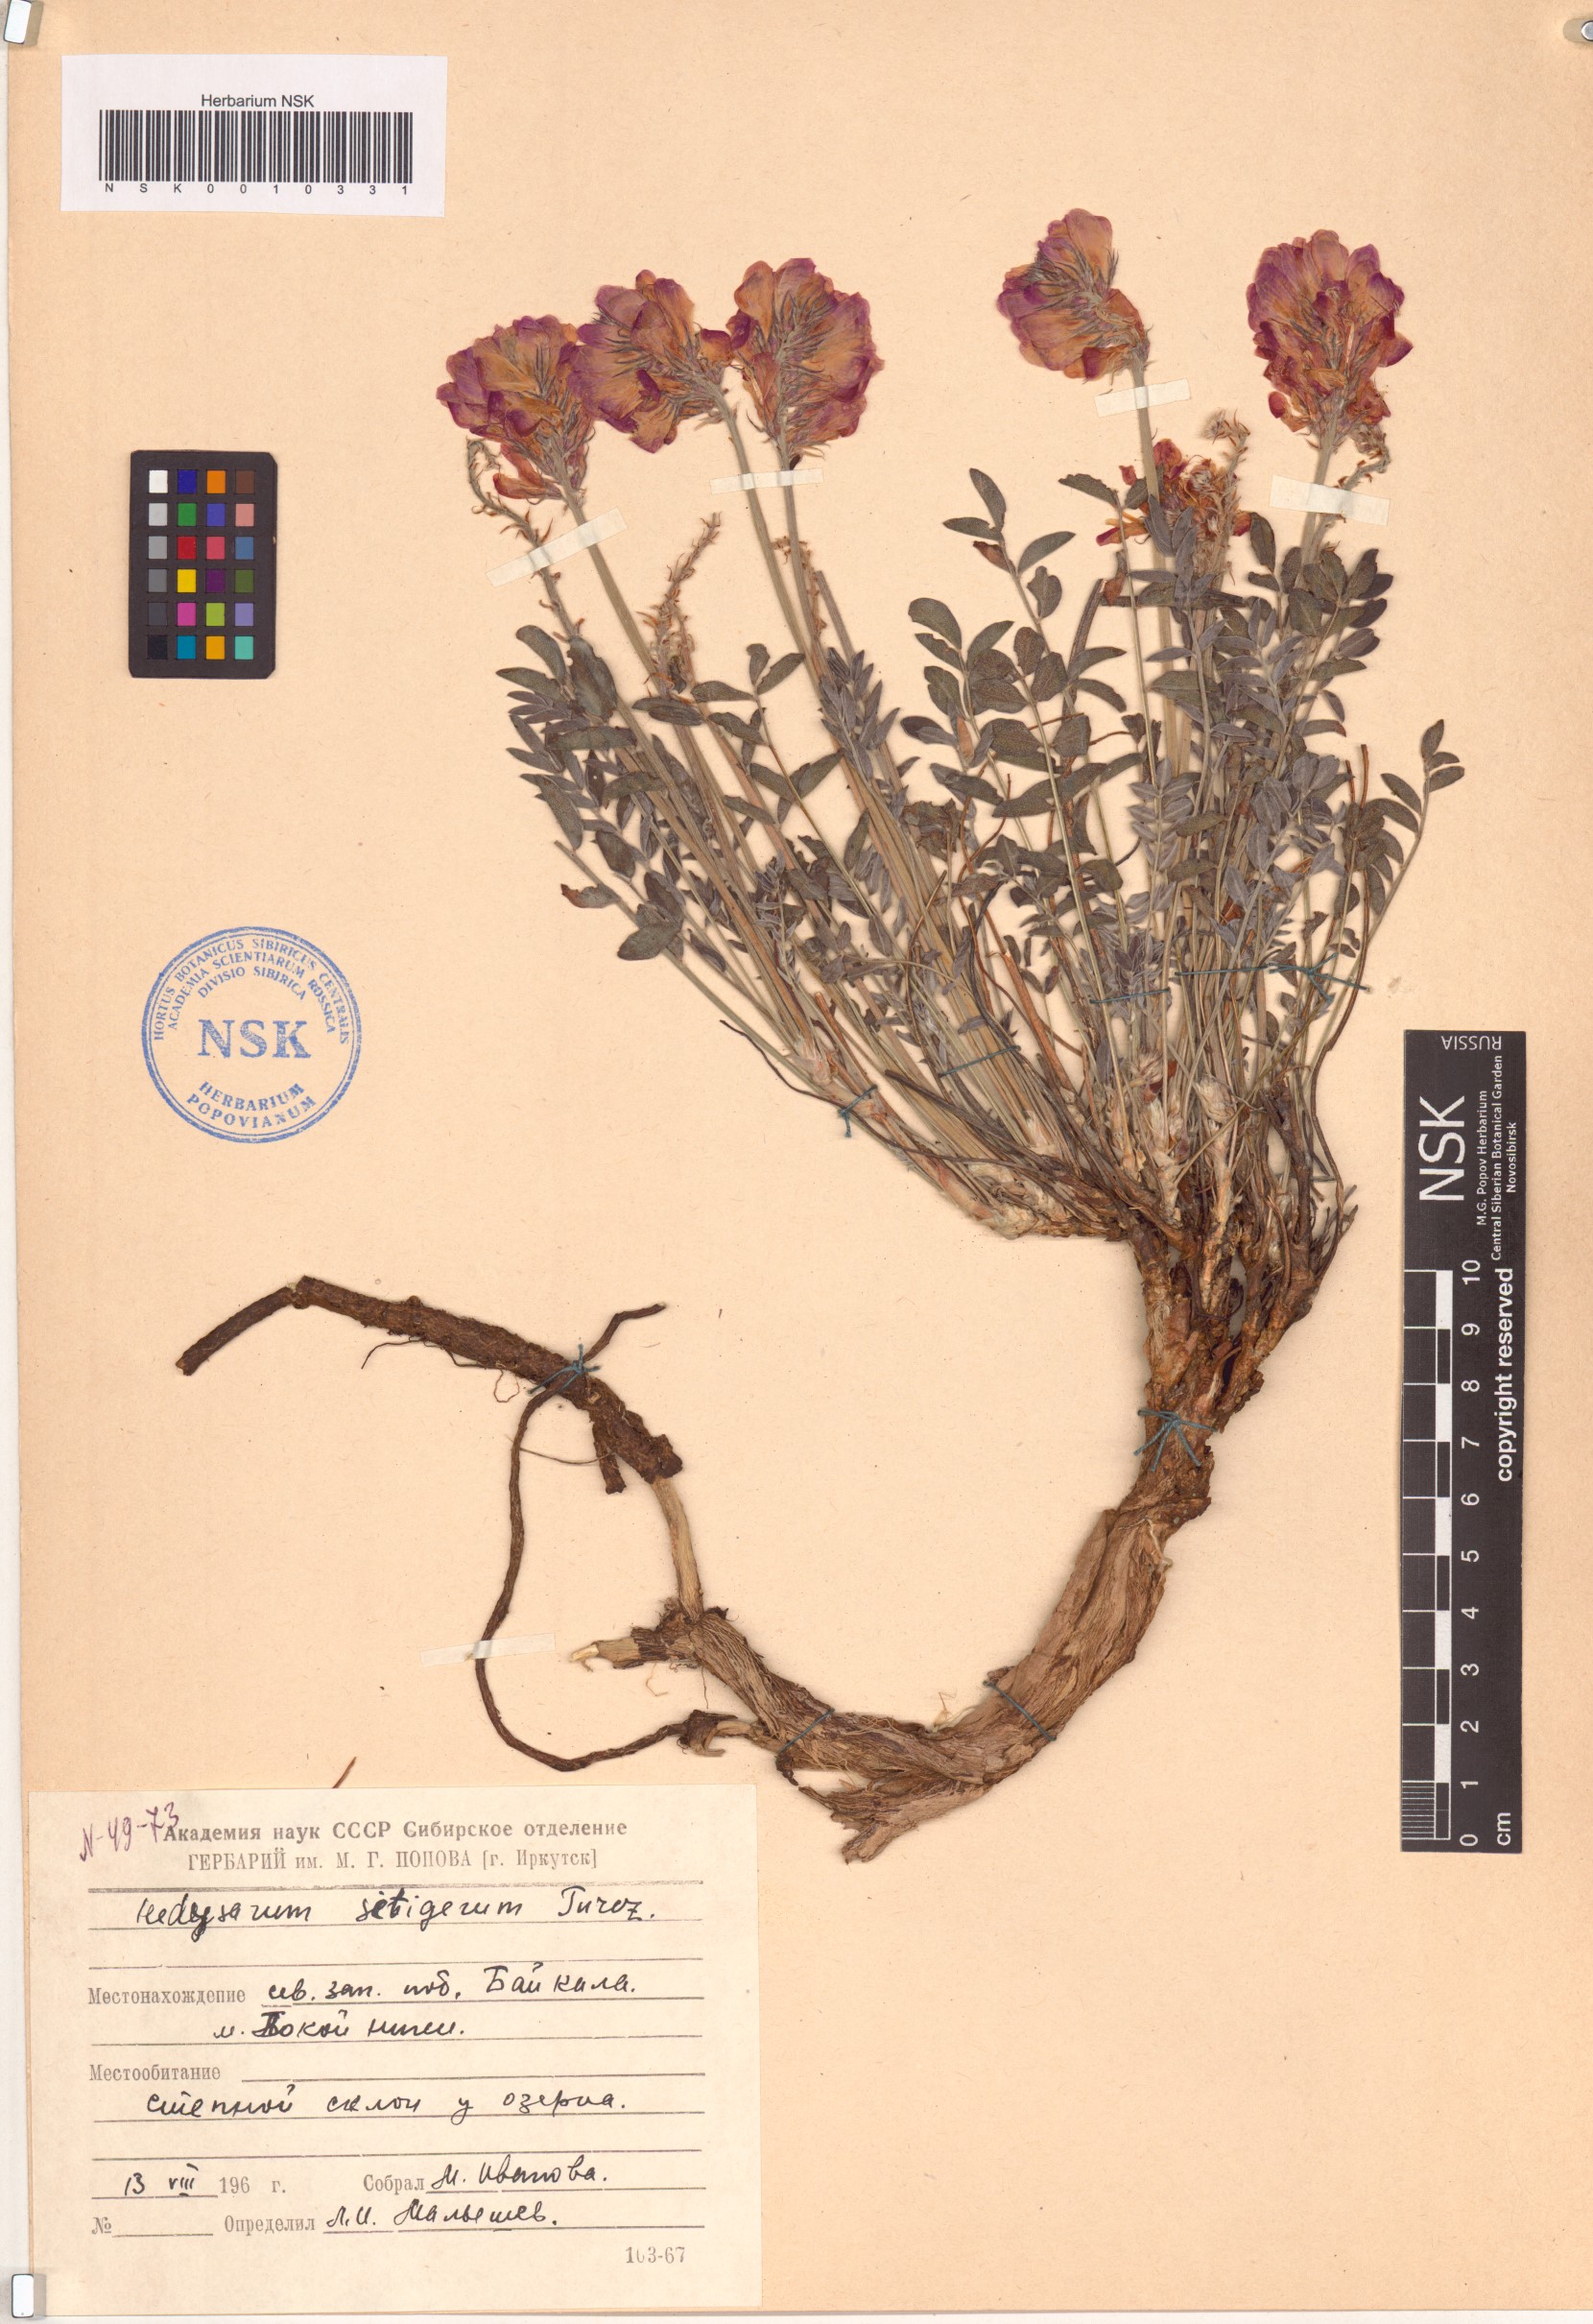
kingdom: Plantae
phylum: Tracheophyta
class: Magnoliopsida
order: Fabales
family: Fabaceae
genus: Hedysarum
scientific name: Hedysarum setigerum
